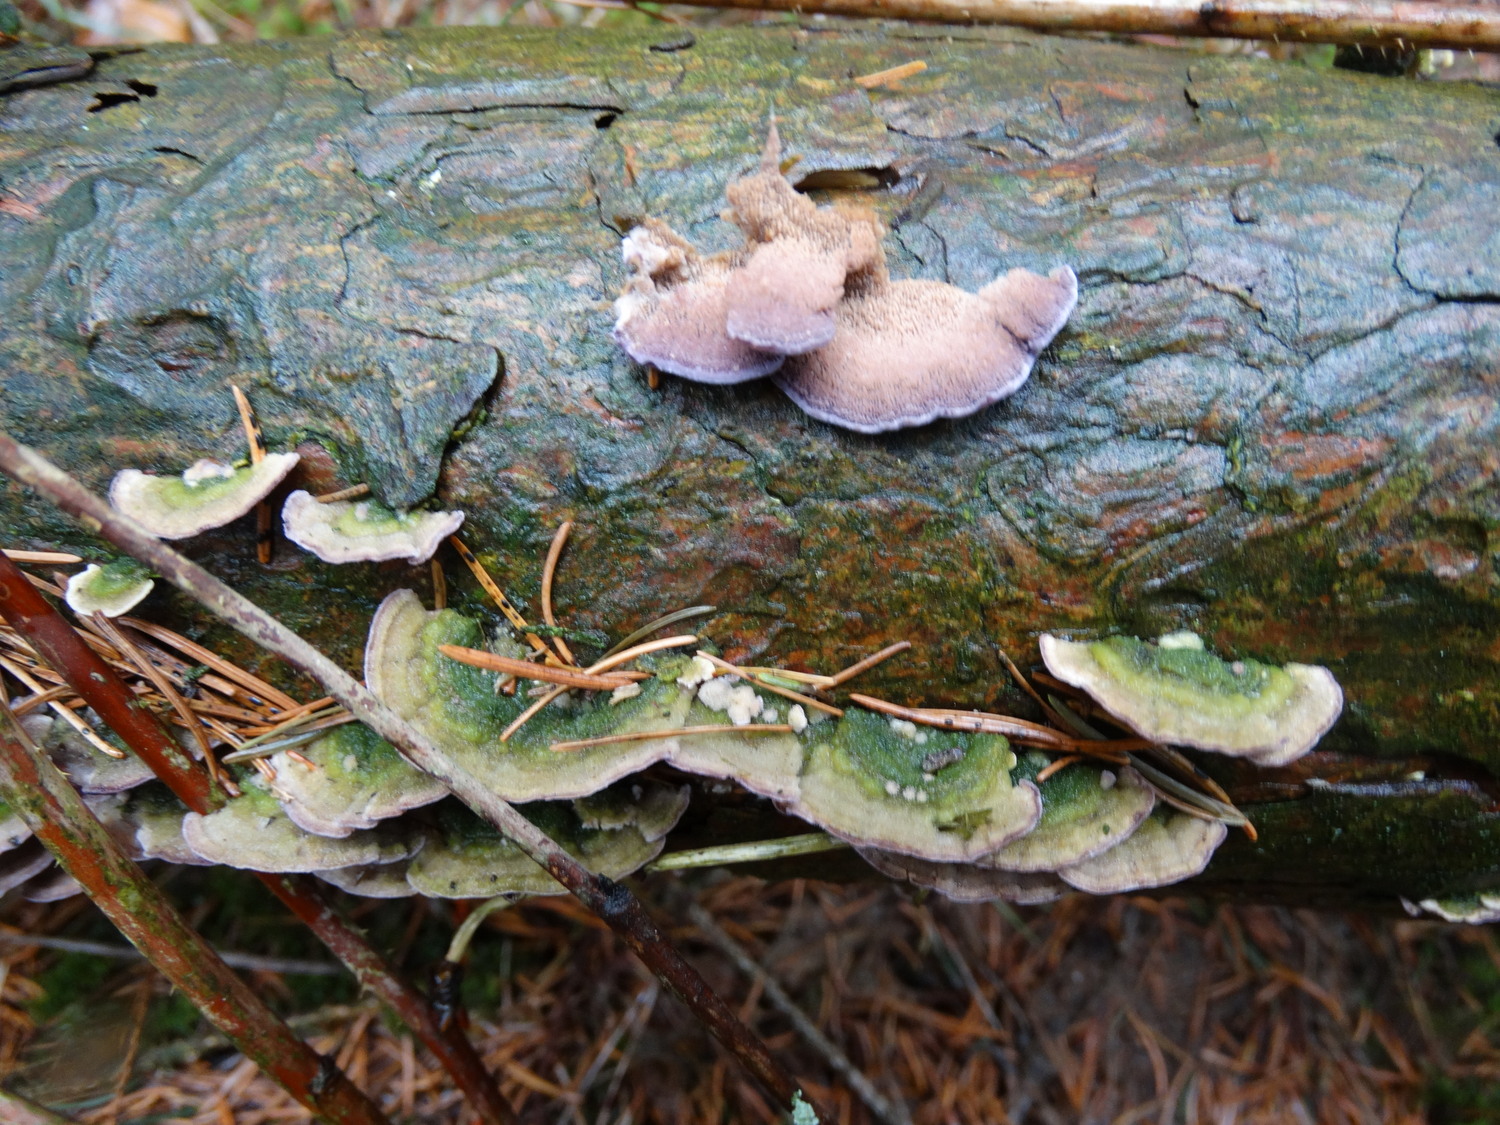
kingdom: Fungi
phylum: Basidiomycota
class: Agaricomycetes
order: Hymenochaetales
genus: Trichaptum
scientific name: Trichaptum abietinum
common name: almindelig violporesvamp
